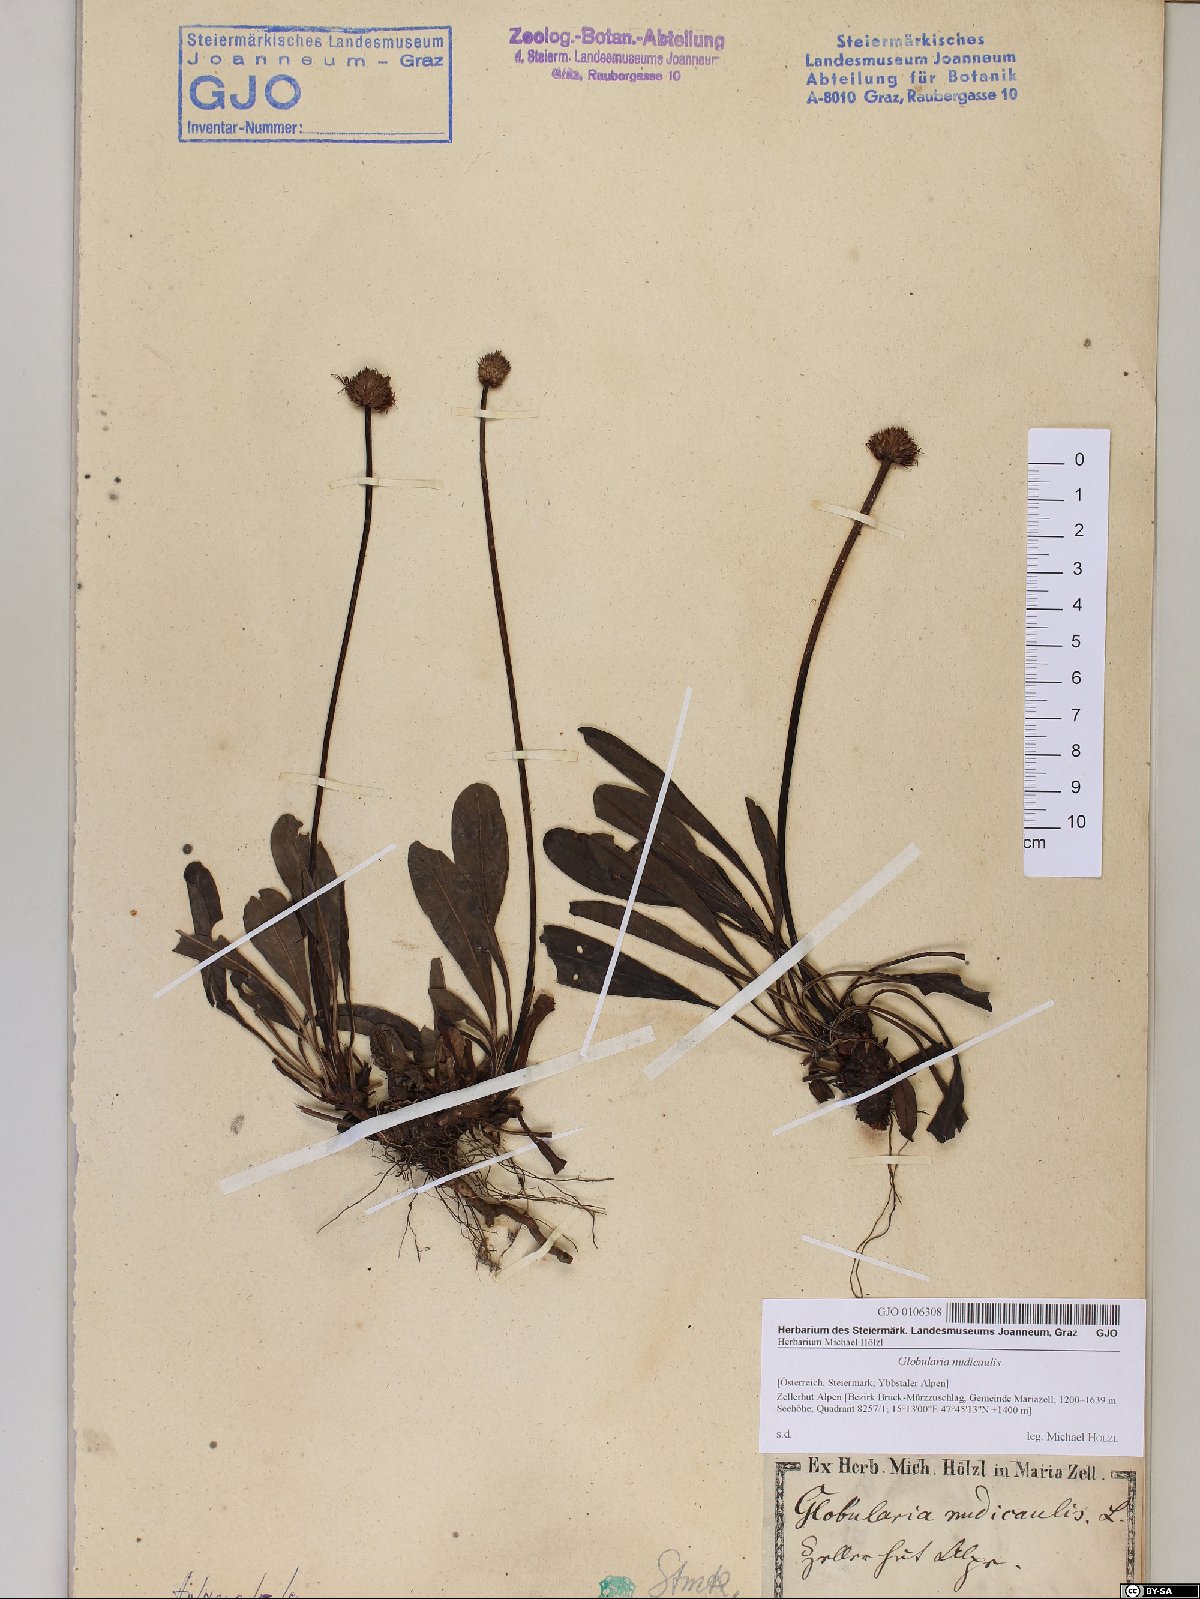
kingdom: Plantae
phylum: Tracheophyta
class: Magnoliopsida
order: Lamiales
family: Plantaginaceae
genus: Globularia
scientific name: Globularia nudicaulis
